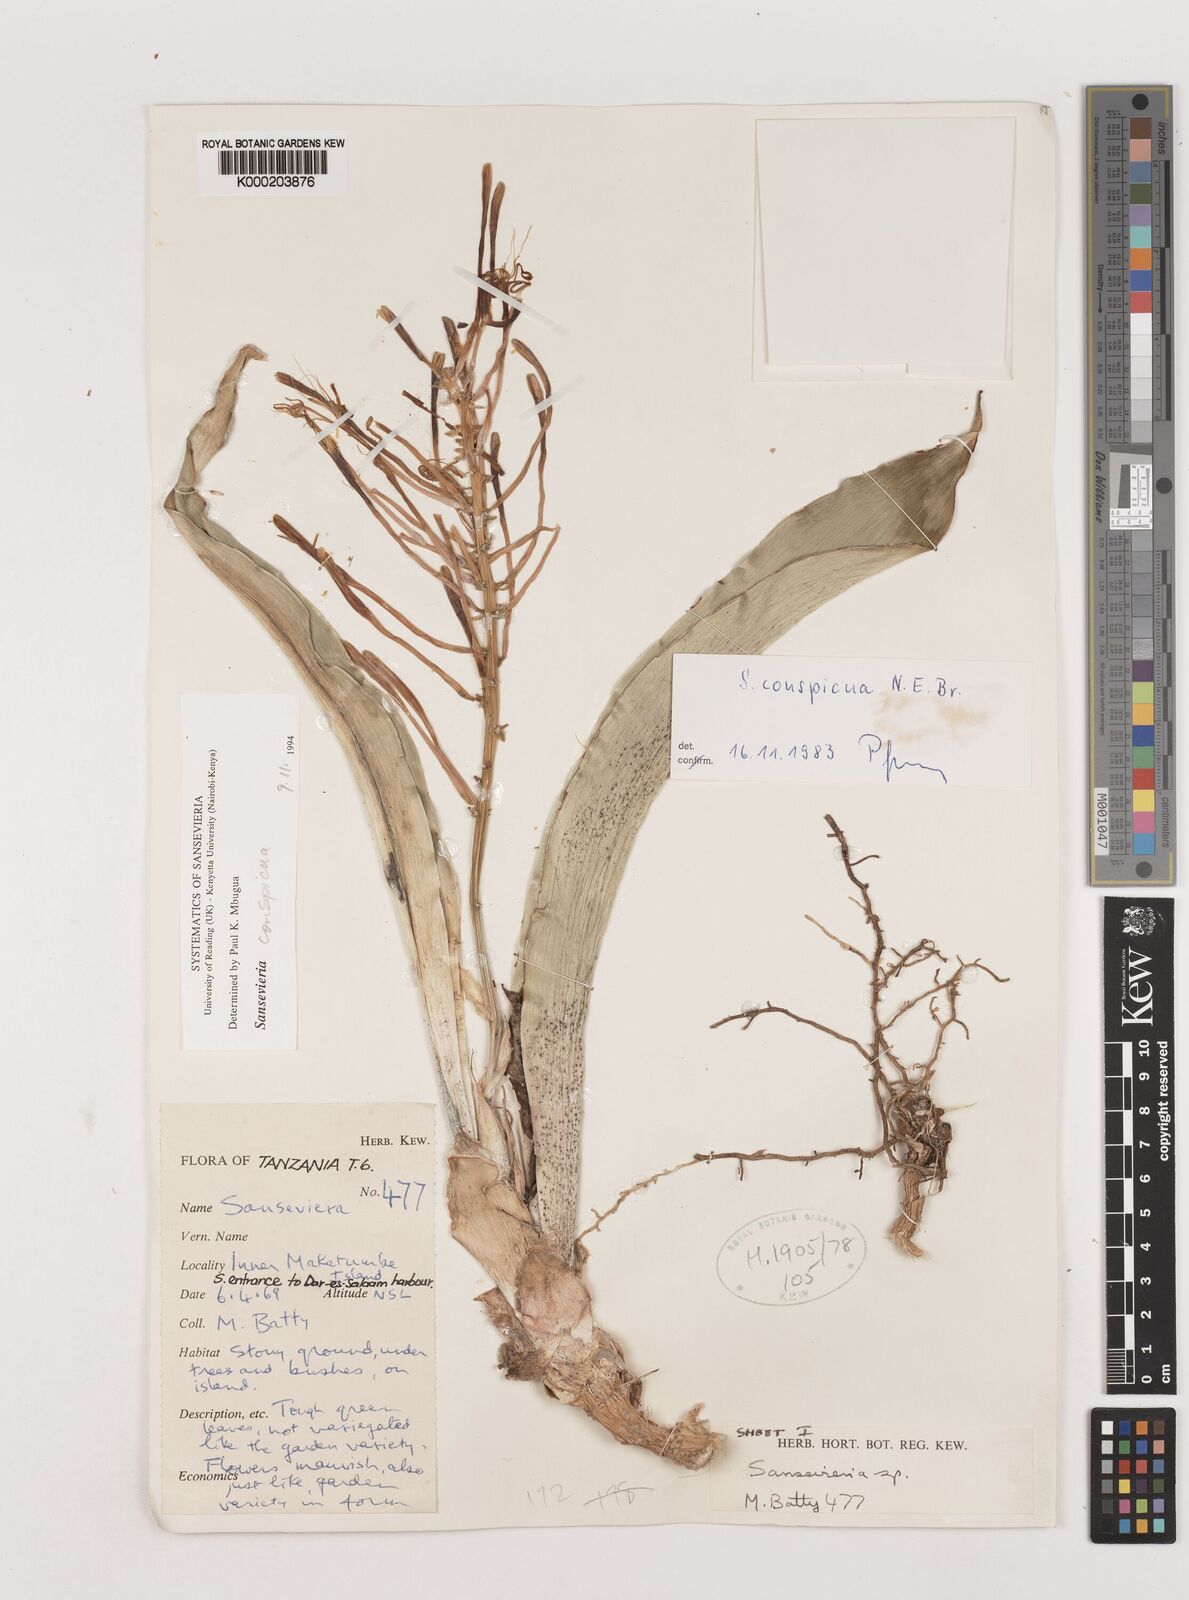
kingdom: Plantae
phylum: Tracheophyta
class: Liliopsida
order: Asparagales
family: Asparagaceae
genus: Dracaena
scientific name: Dracaena conspicua
